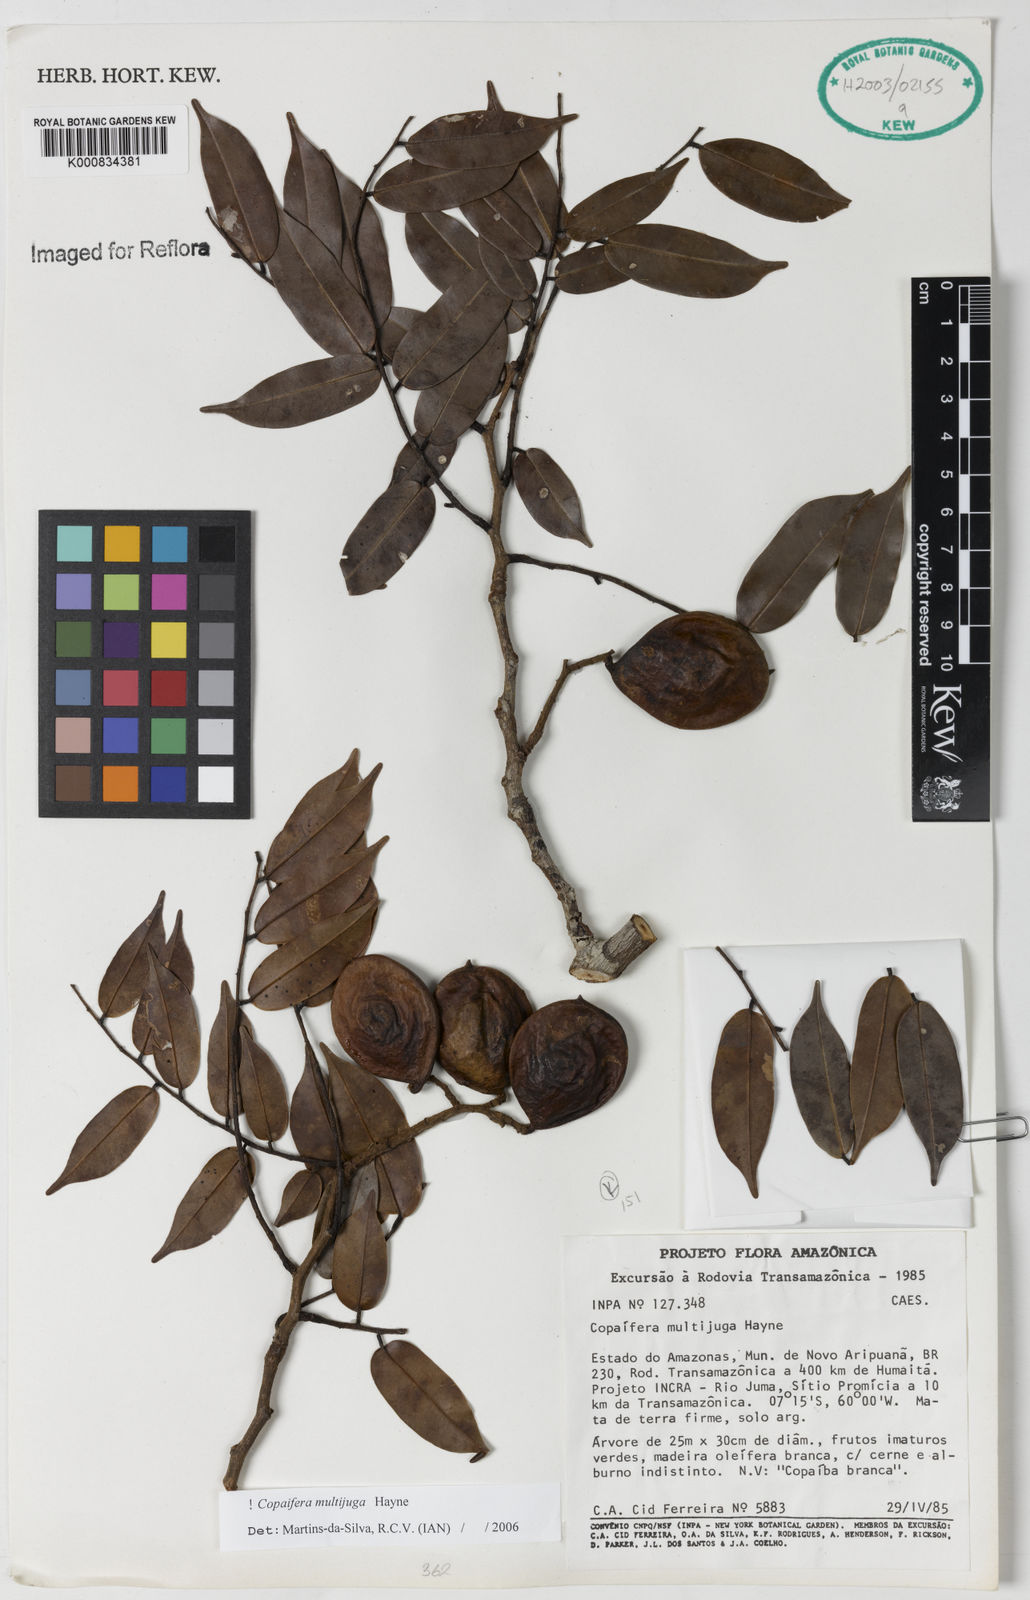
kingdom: Plantae
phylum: Tracheophyta
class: Magnoliopsida
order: Fabales
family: Fabaceae
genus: Copaifera
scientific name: Copaifera multijuga
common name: Brazilian copaiba
